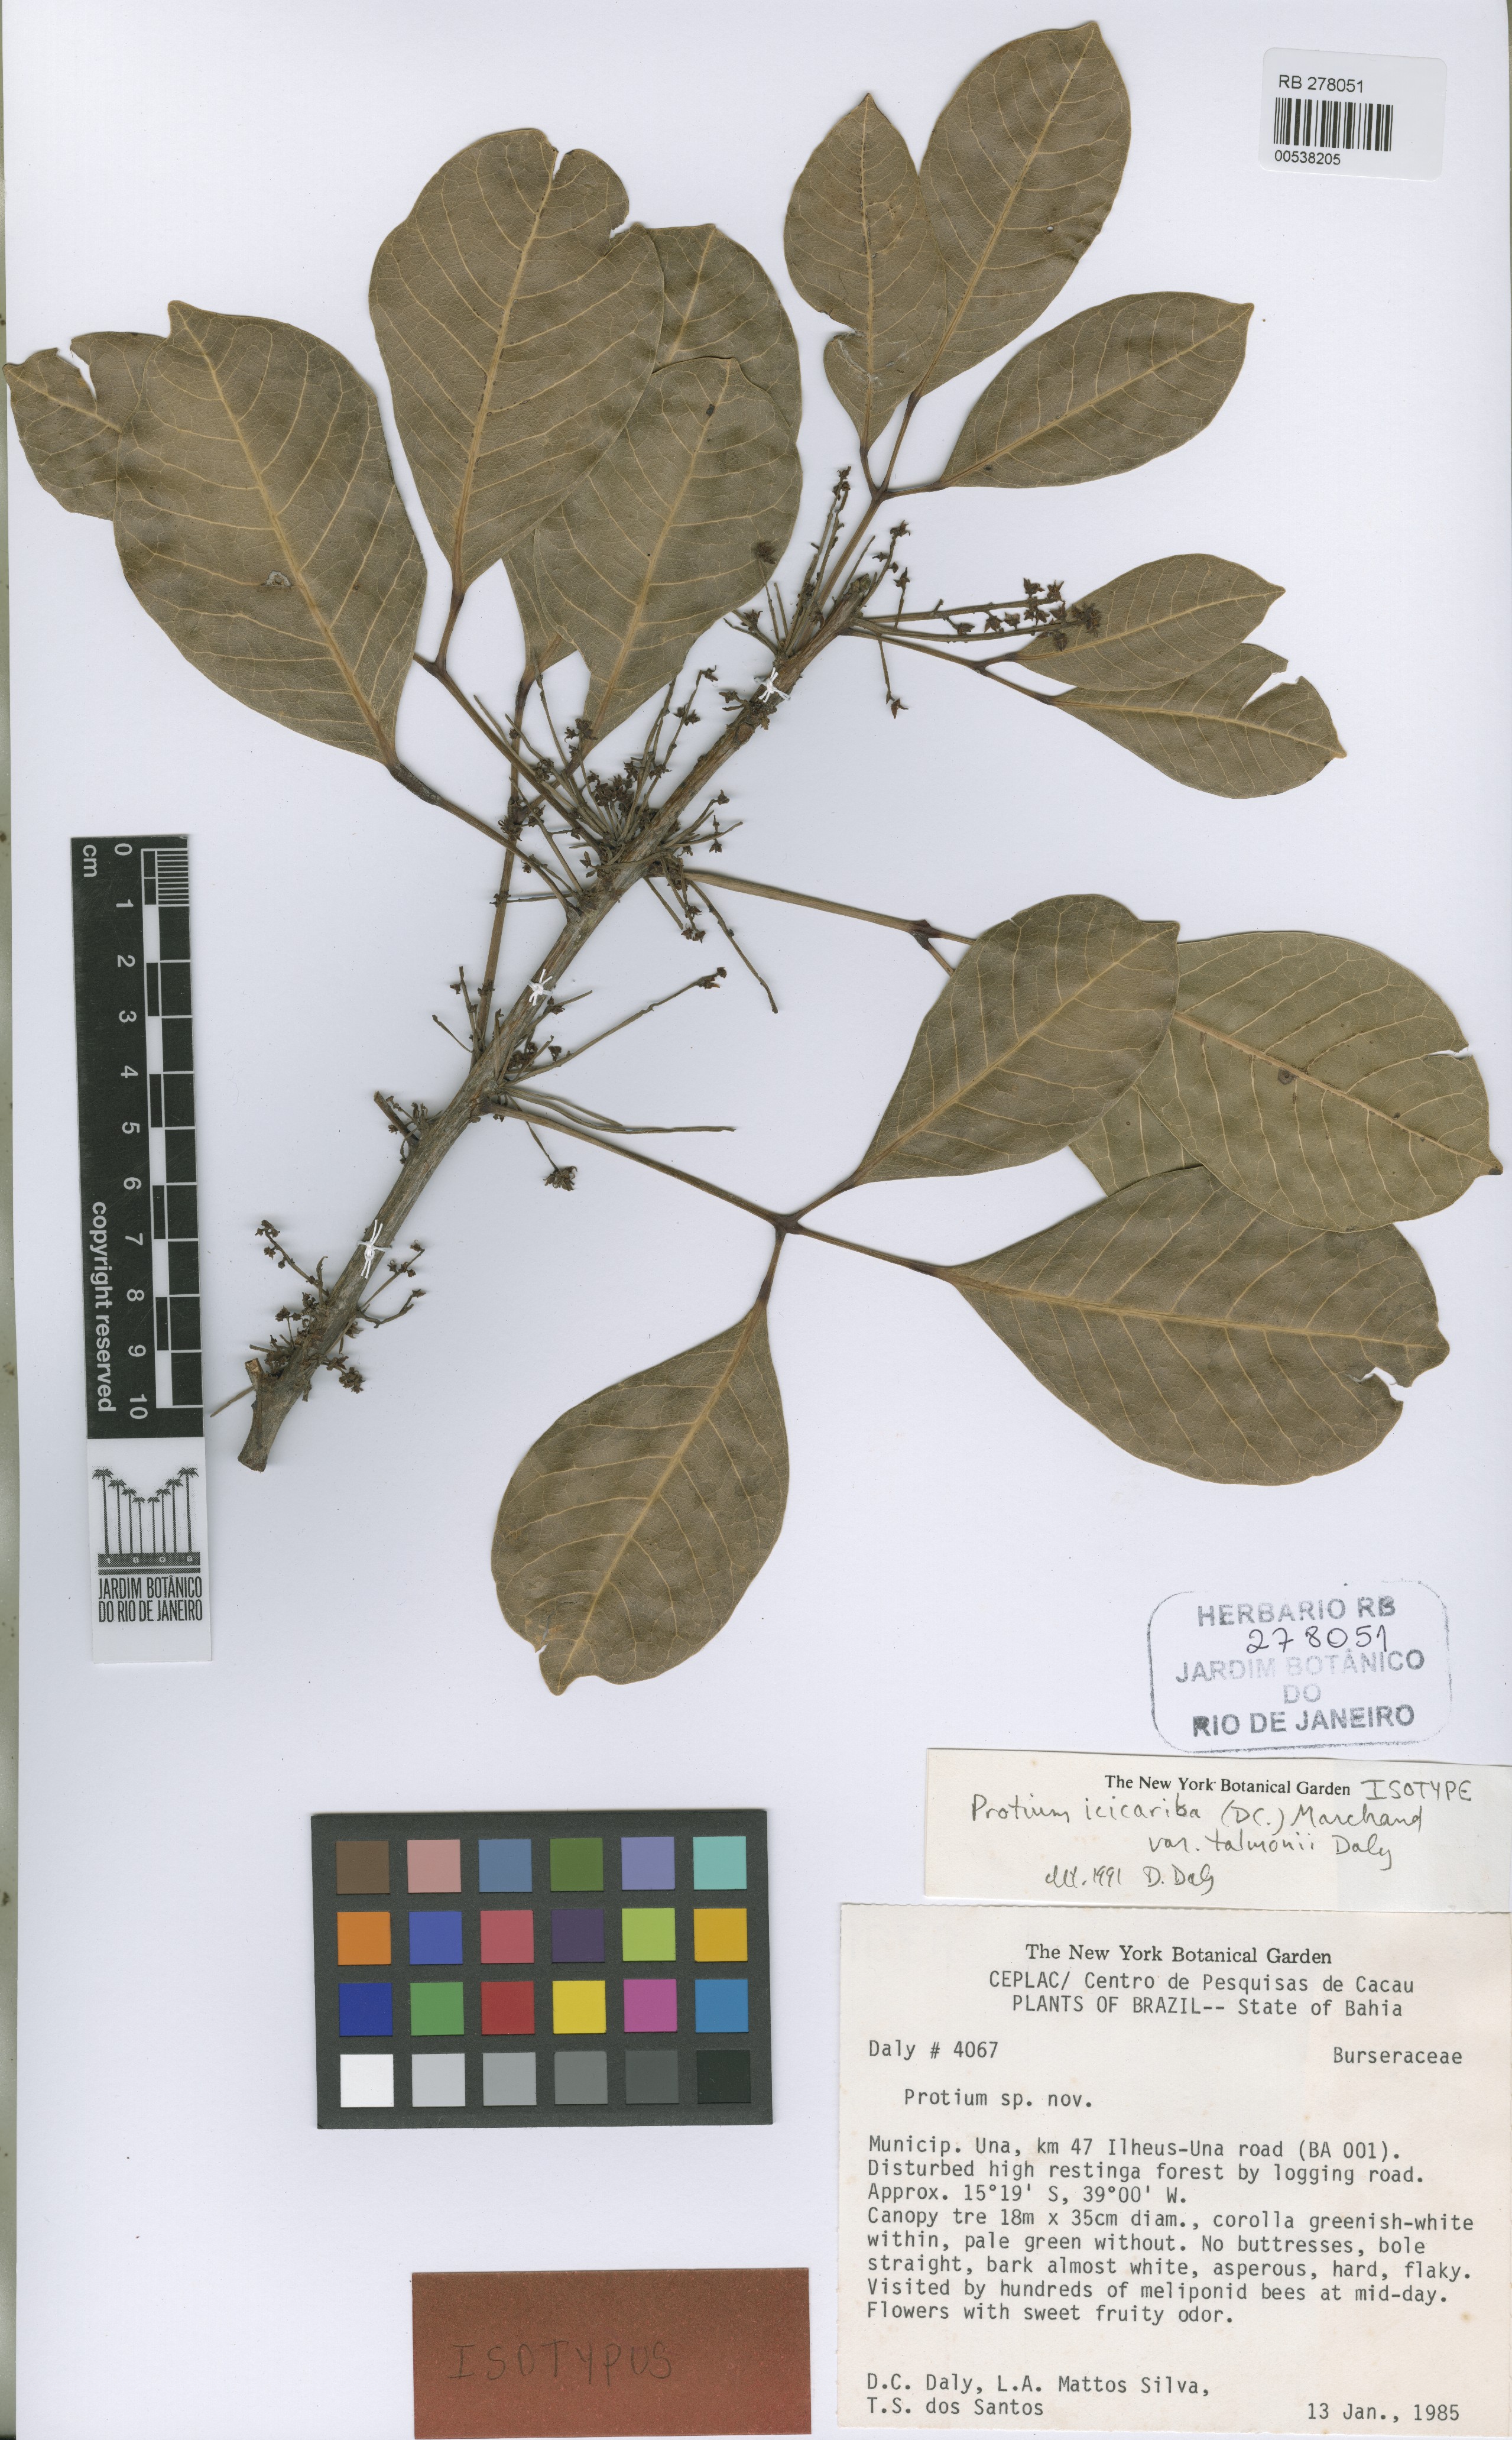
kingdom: Plantae
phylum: Tracheophyta
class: Magnoliopsida
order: Sapindales
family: Burseraceae
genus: Protium
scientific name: Protium icicariba
